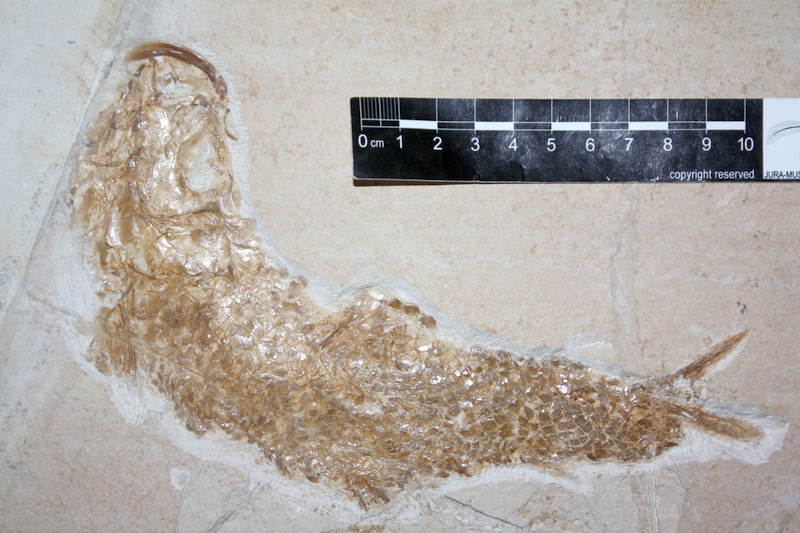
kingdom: Animalia
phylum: Chordata
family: Ankylophoridae
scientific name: Ankylophoridae
